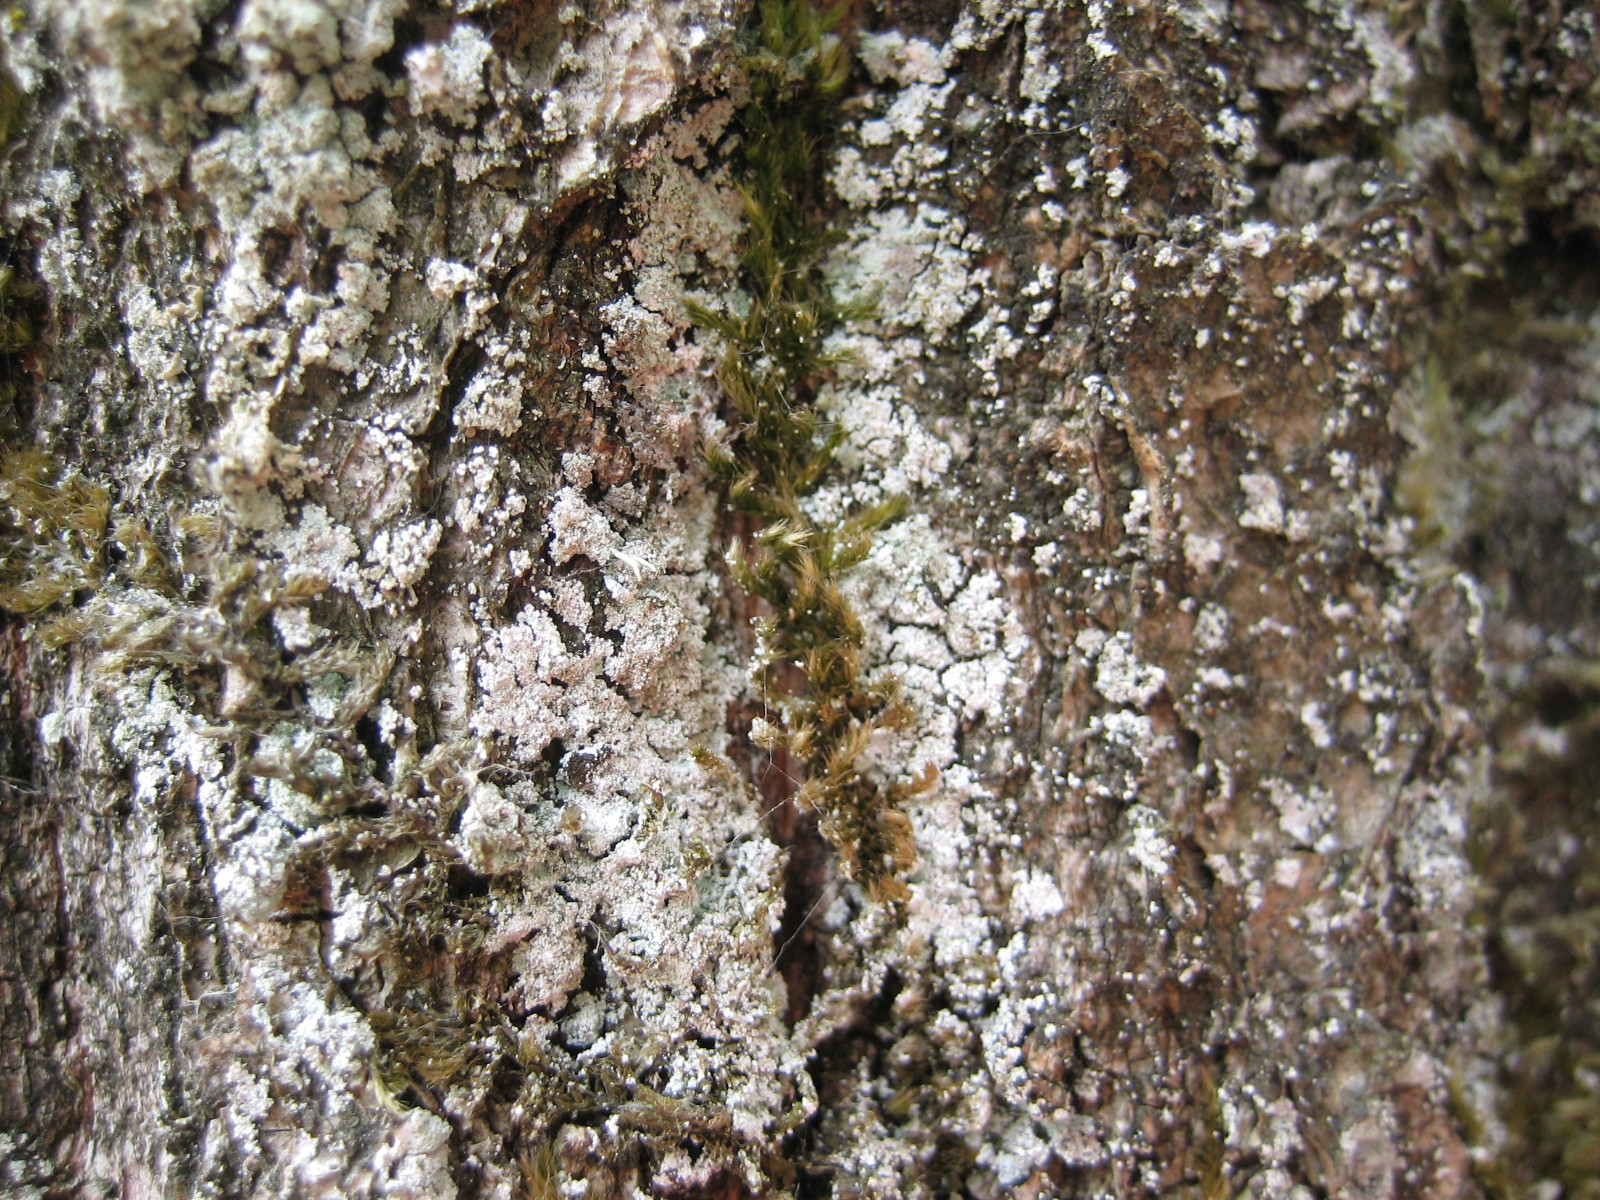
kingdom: Fungi
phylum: Ascomycota
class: Lecanoromycetes
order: Lecanorales
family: Stereocaulaceae
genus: Lepraria
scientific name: Lepraria incana
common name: almindelig støvlav
